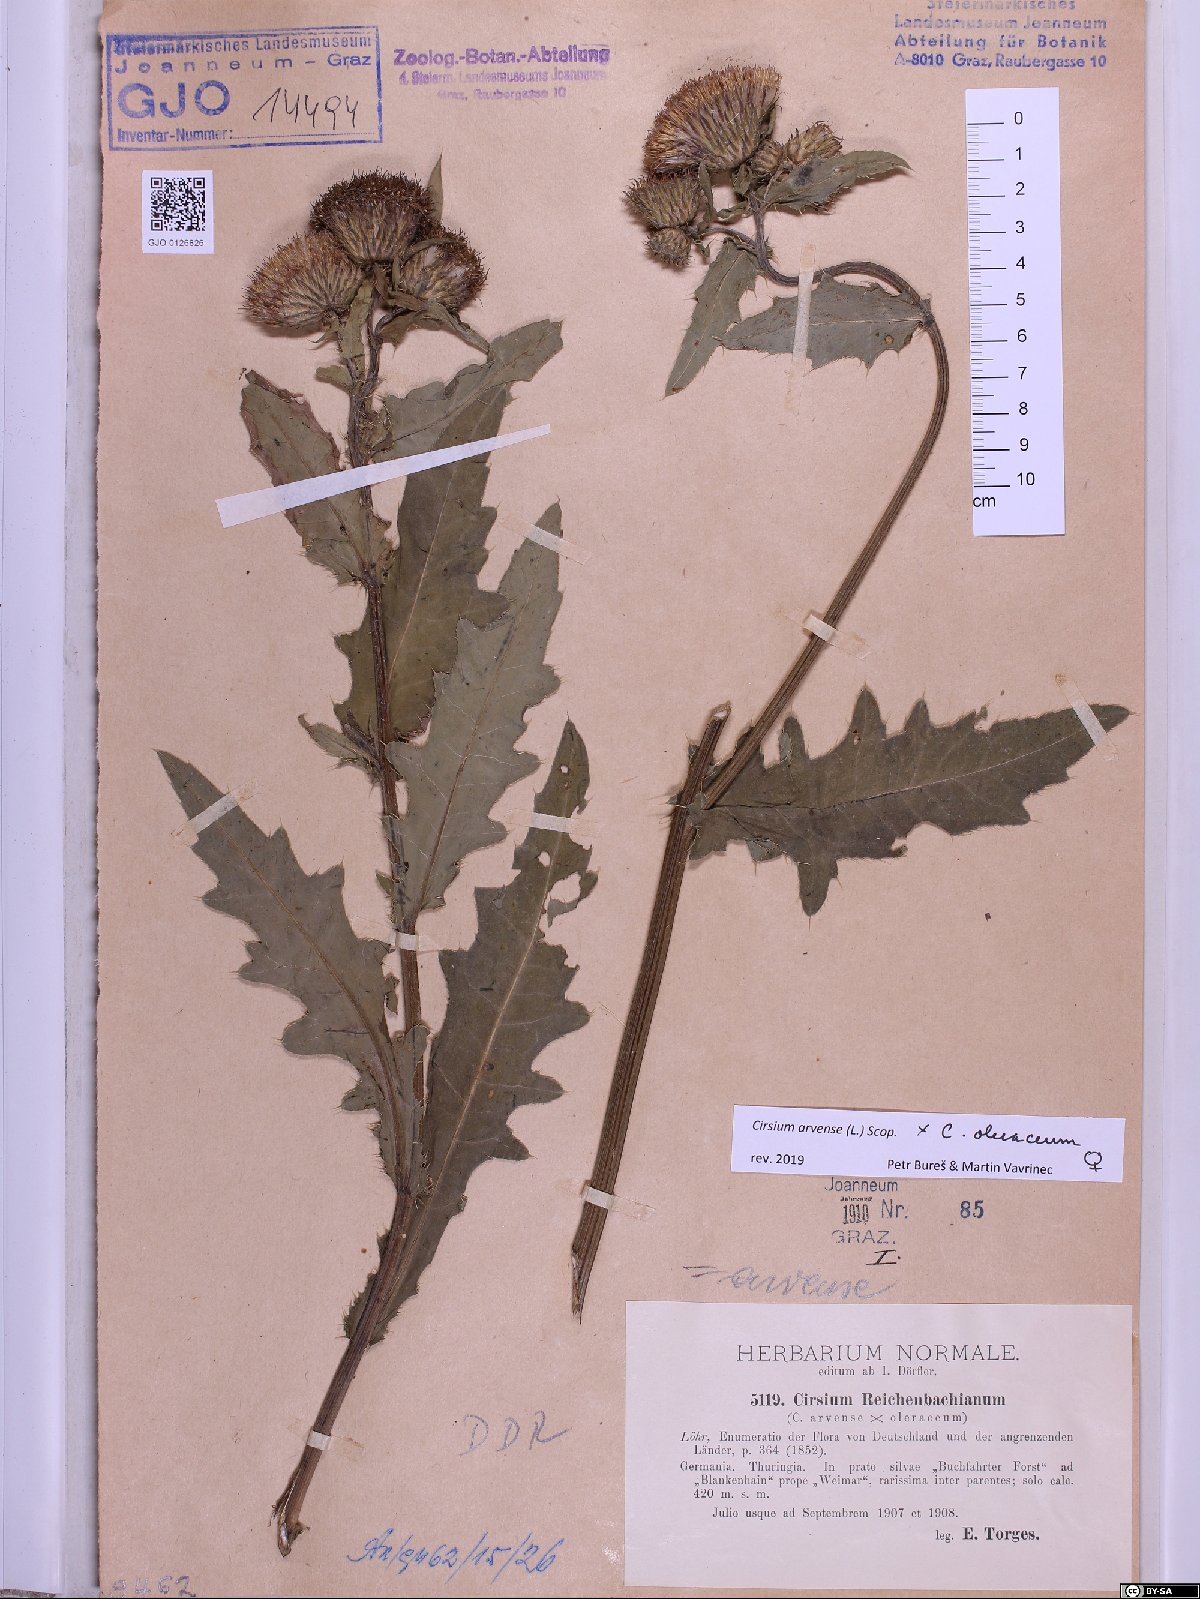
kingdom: Plantae
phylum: Tracheophyta
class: Magnoliopsida
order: Asterales
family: Asteraceae
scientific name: Asteraceae
